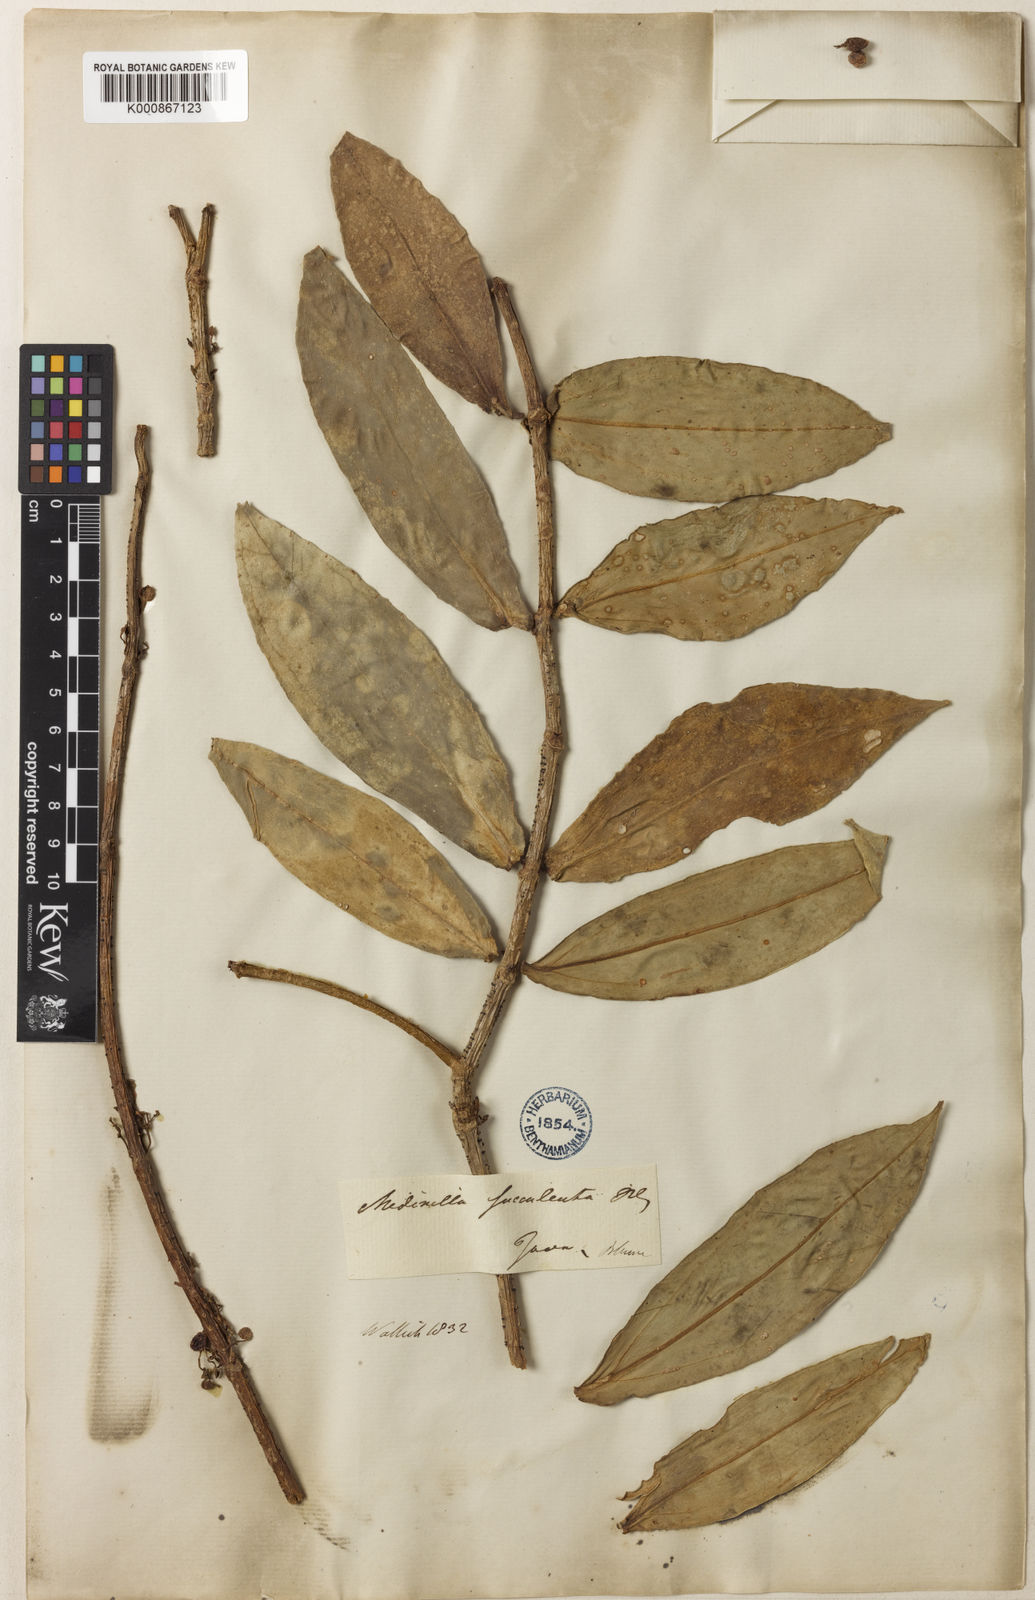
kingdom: Plantae
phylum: Tracheophyta
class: Magnoliopsida
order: Myrtales
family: Melastomataceae
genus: Medinilla
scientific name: Medinilla succulenta
